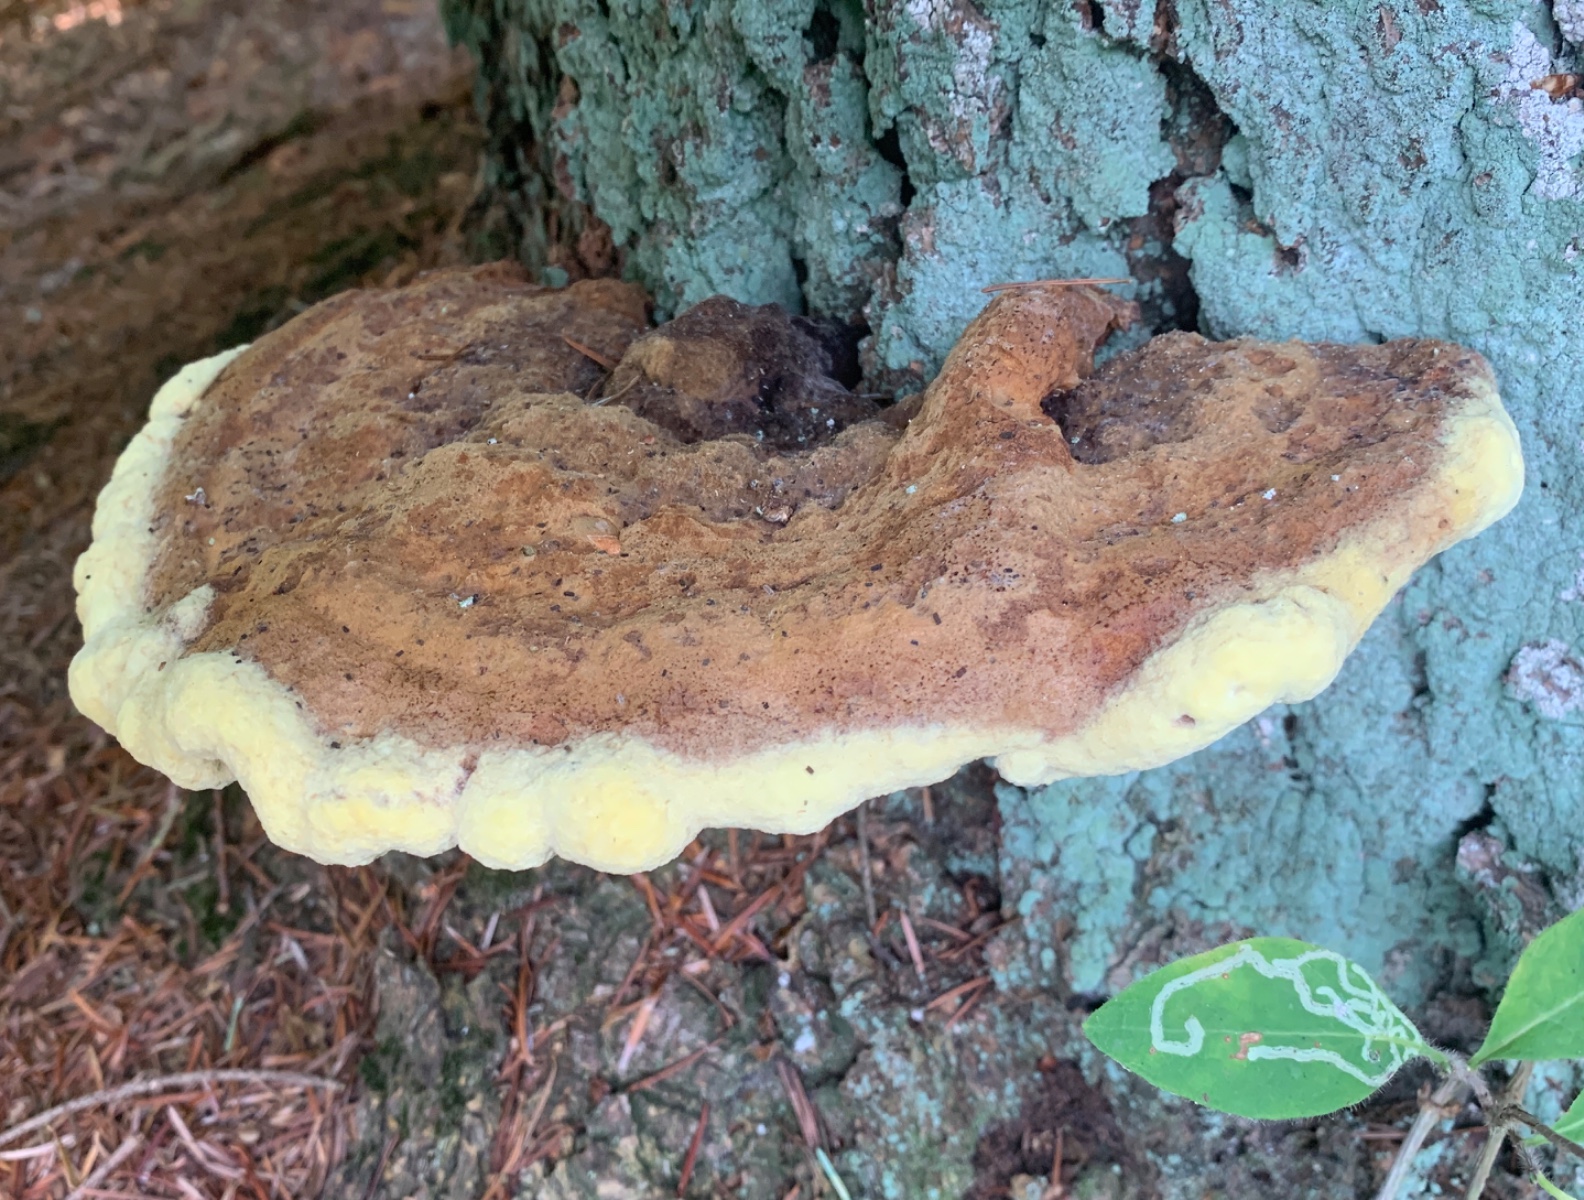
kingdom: Fungi
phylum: Basidiomycota
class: Agaricomycetes
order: Polyporales
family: Laetiporaceae
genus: Phaeolus
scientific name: Phaeolus schweinitzii
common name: brunporesvamp
